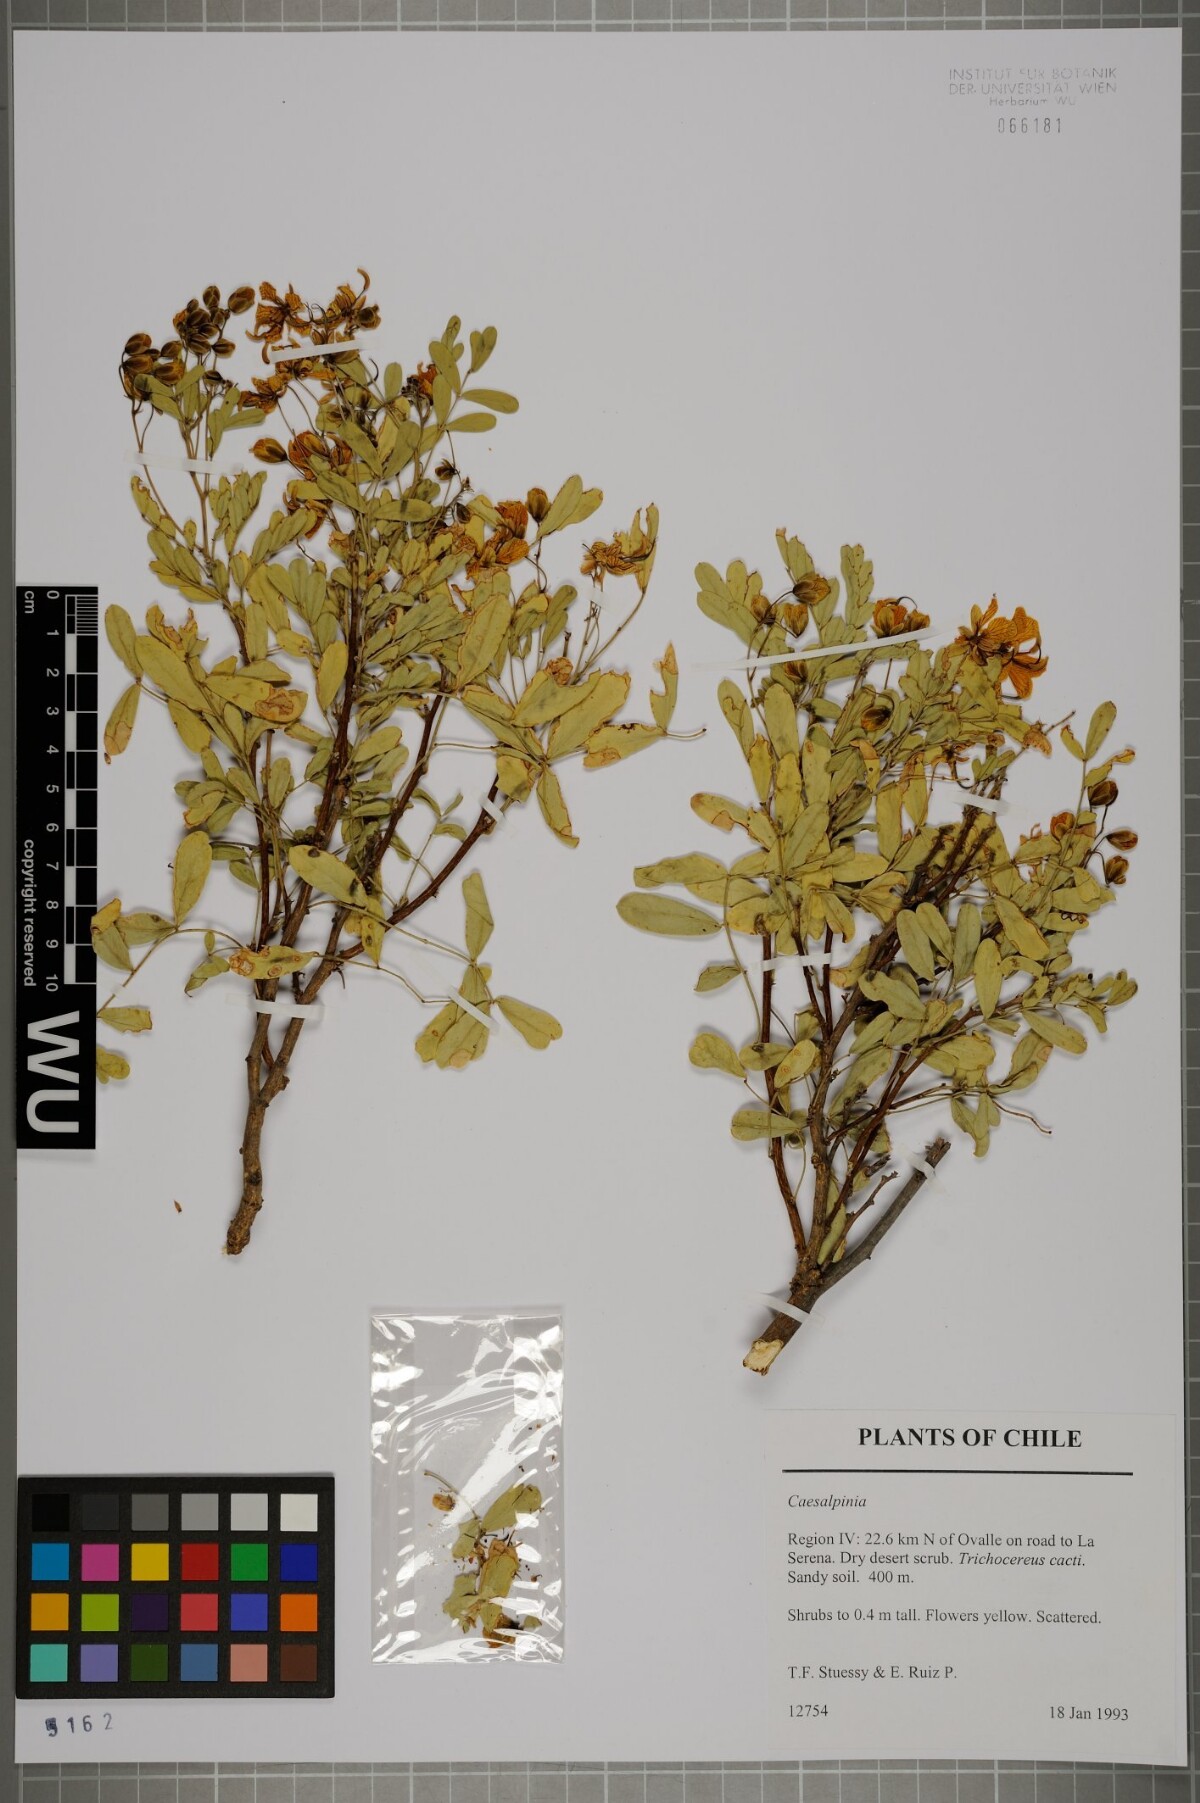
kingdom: Plantae
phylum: Tracheophyta
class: Magnoliopsida
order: Fabales
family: Fabaceae
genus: Caesalpinia
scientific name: Caesalpinia
